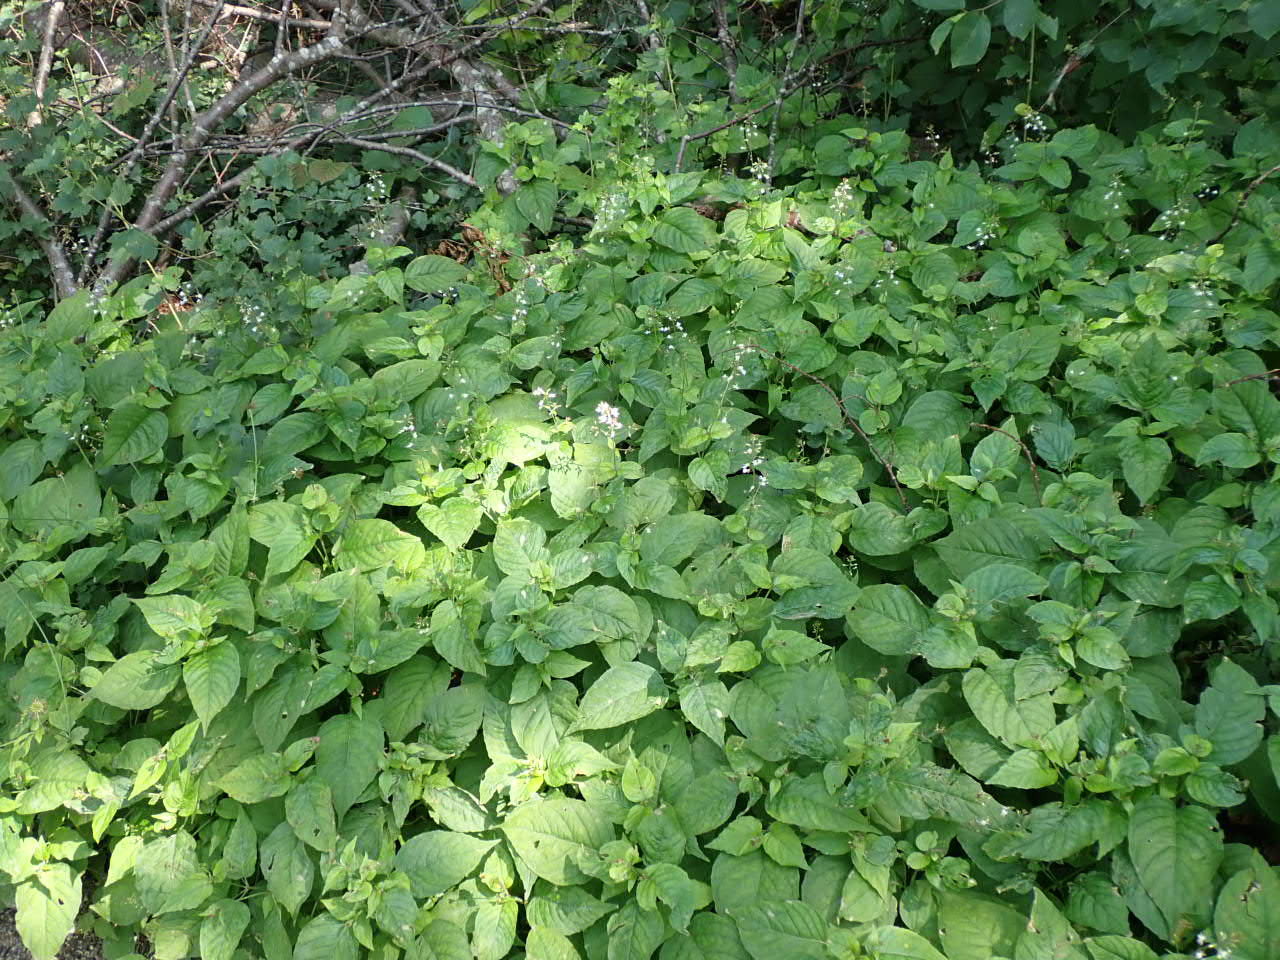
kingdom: Plantae
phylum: Tracheophyta
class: Magnoliopsida
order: Myrtales
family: Onagraceae
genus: Circaea
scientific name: Circaea lutetiana
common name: Dunet steffensurt
